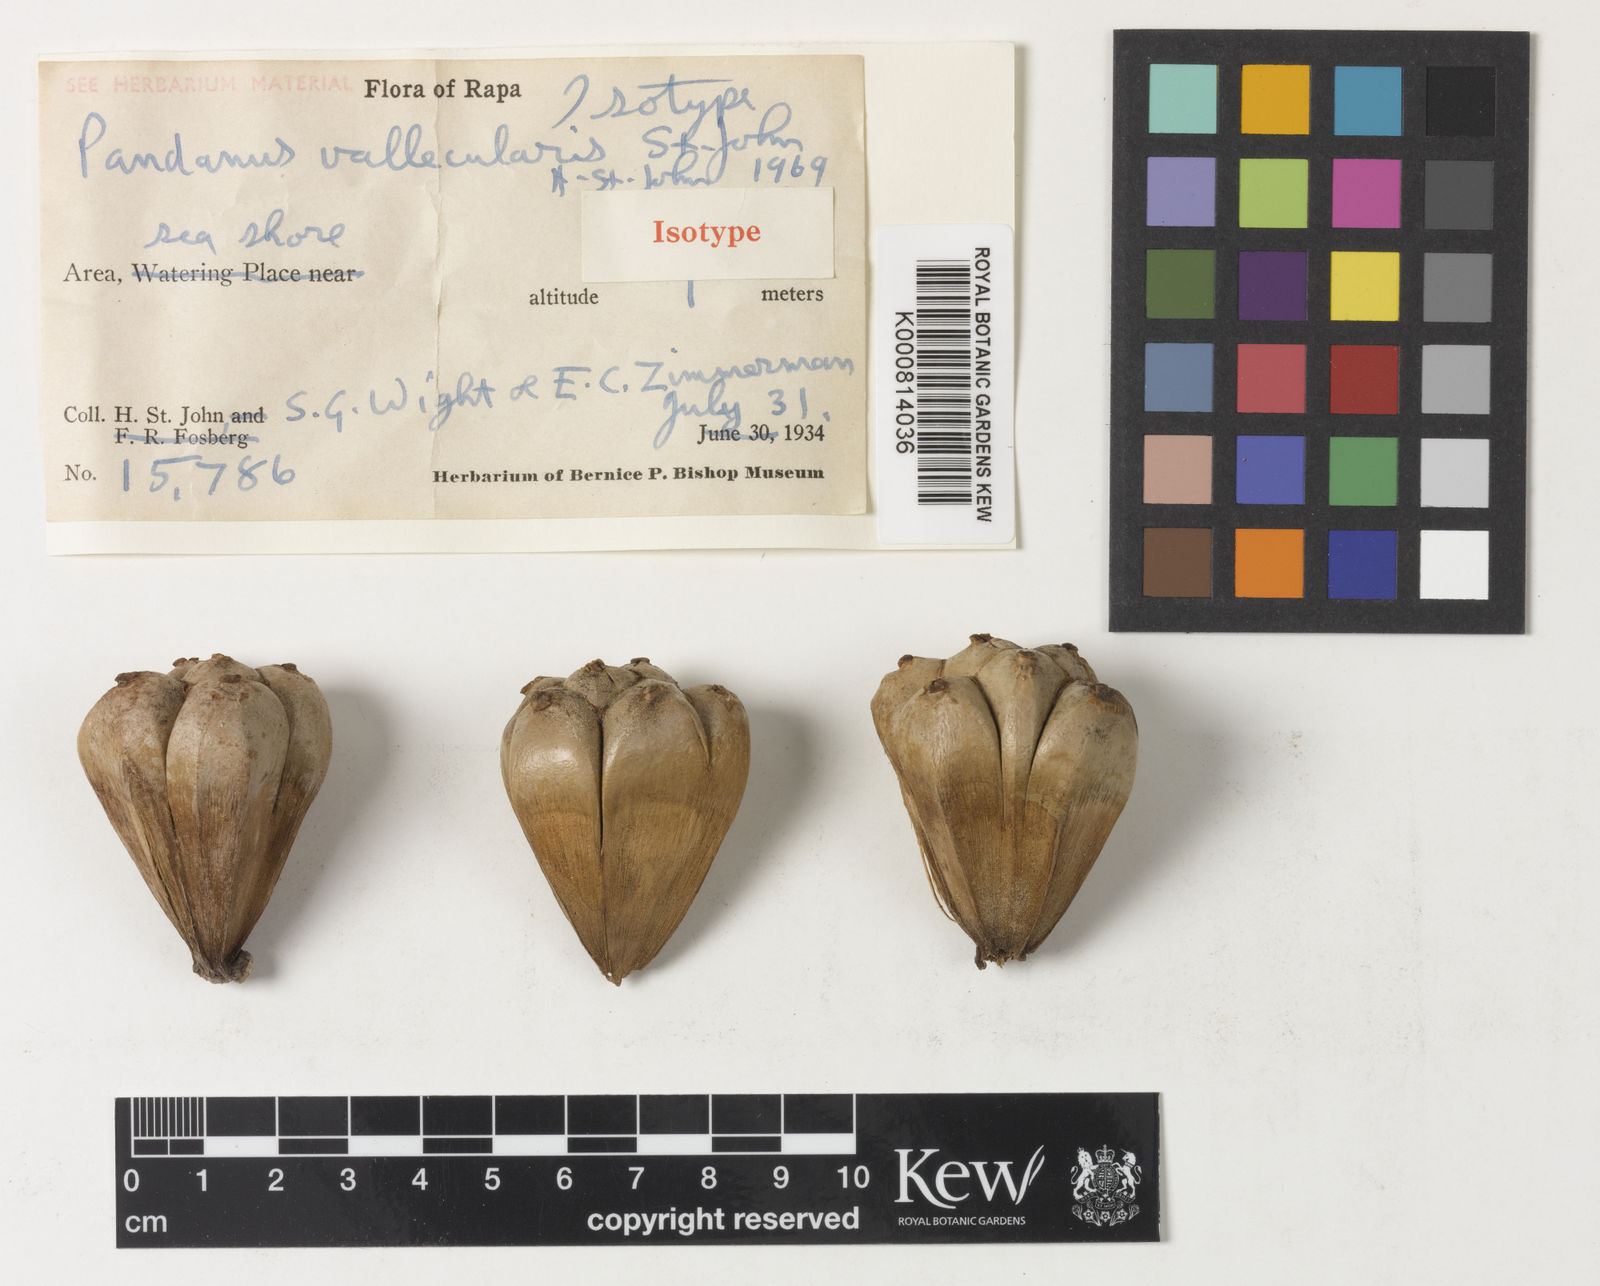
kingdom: Plantae
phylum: Tracheophyta
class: Liliopsida
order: Pandanales
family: Pandanaceae
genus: Pandanus
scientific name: Pandanus
